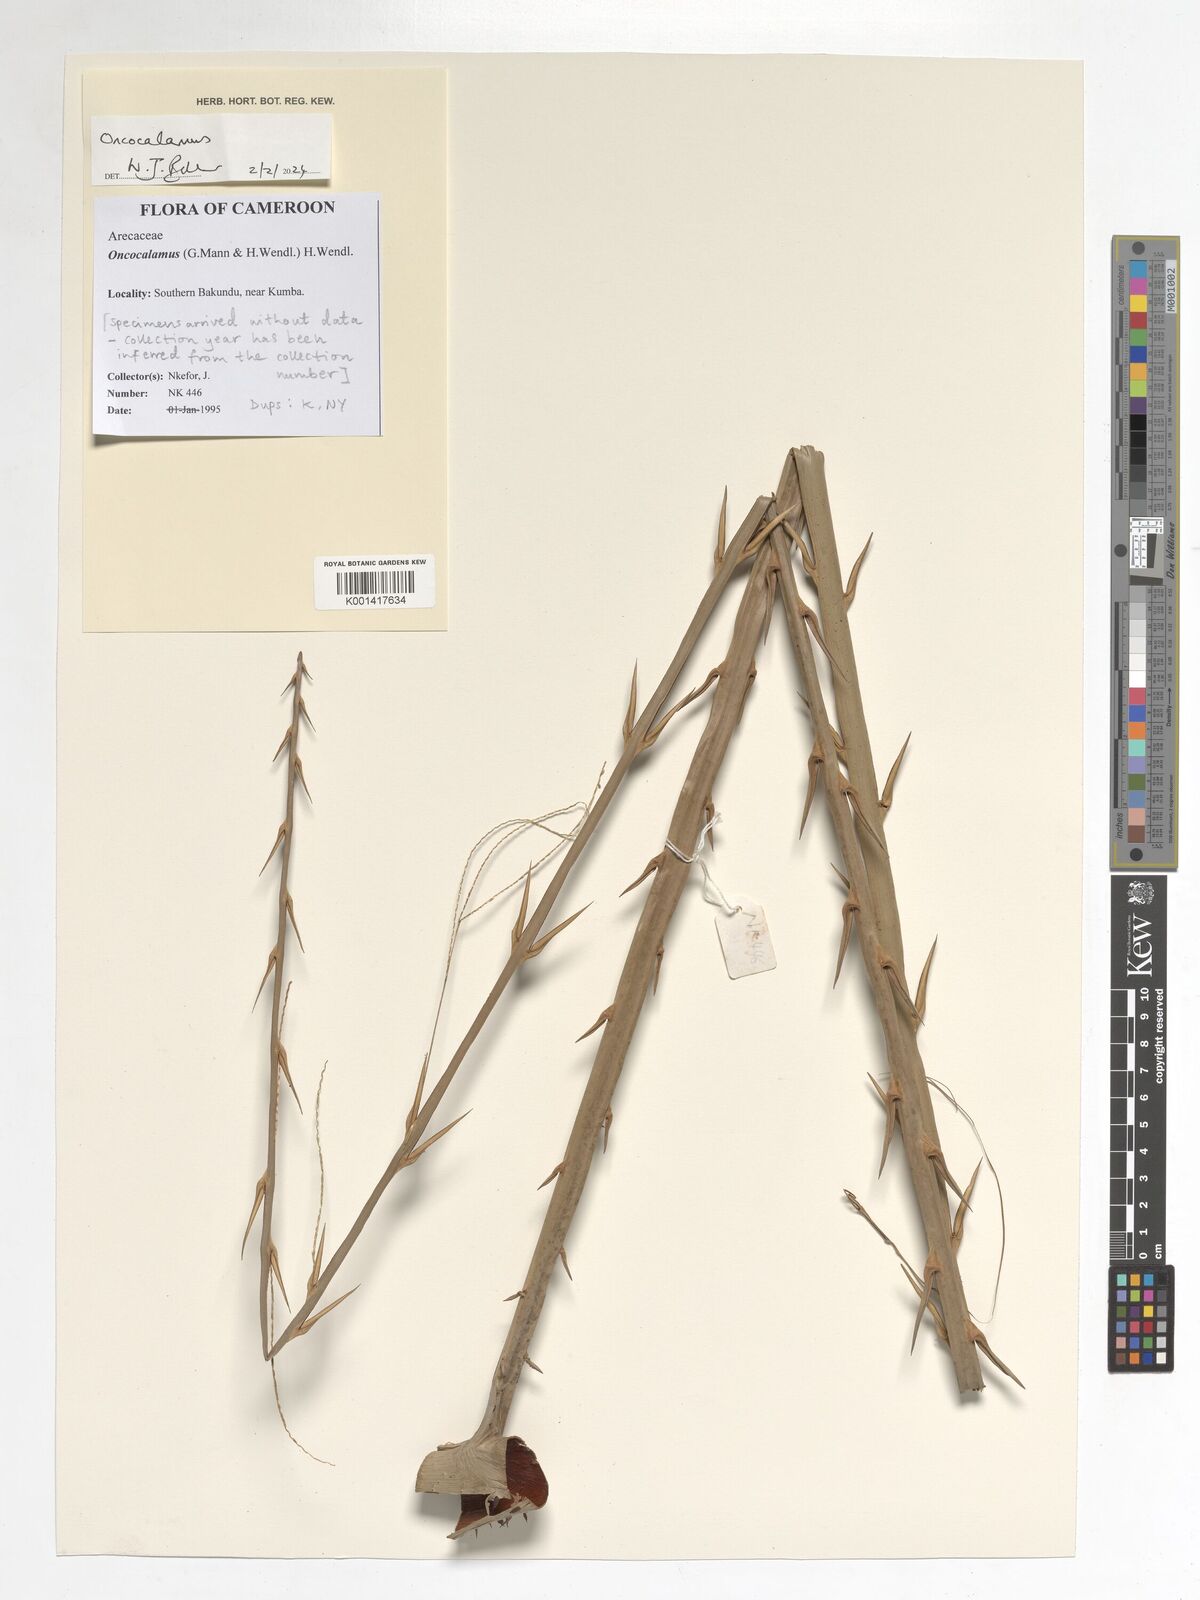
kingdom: Plantae
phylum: Tracheophyta
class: Liliopsida
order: Arecales
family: Arecaceae
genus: Oncocalamus
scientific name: Oncocalamus
